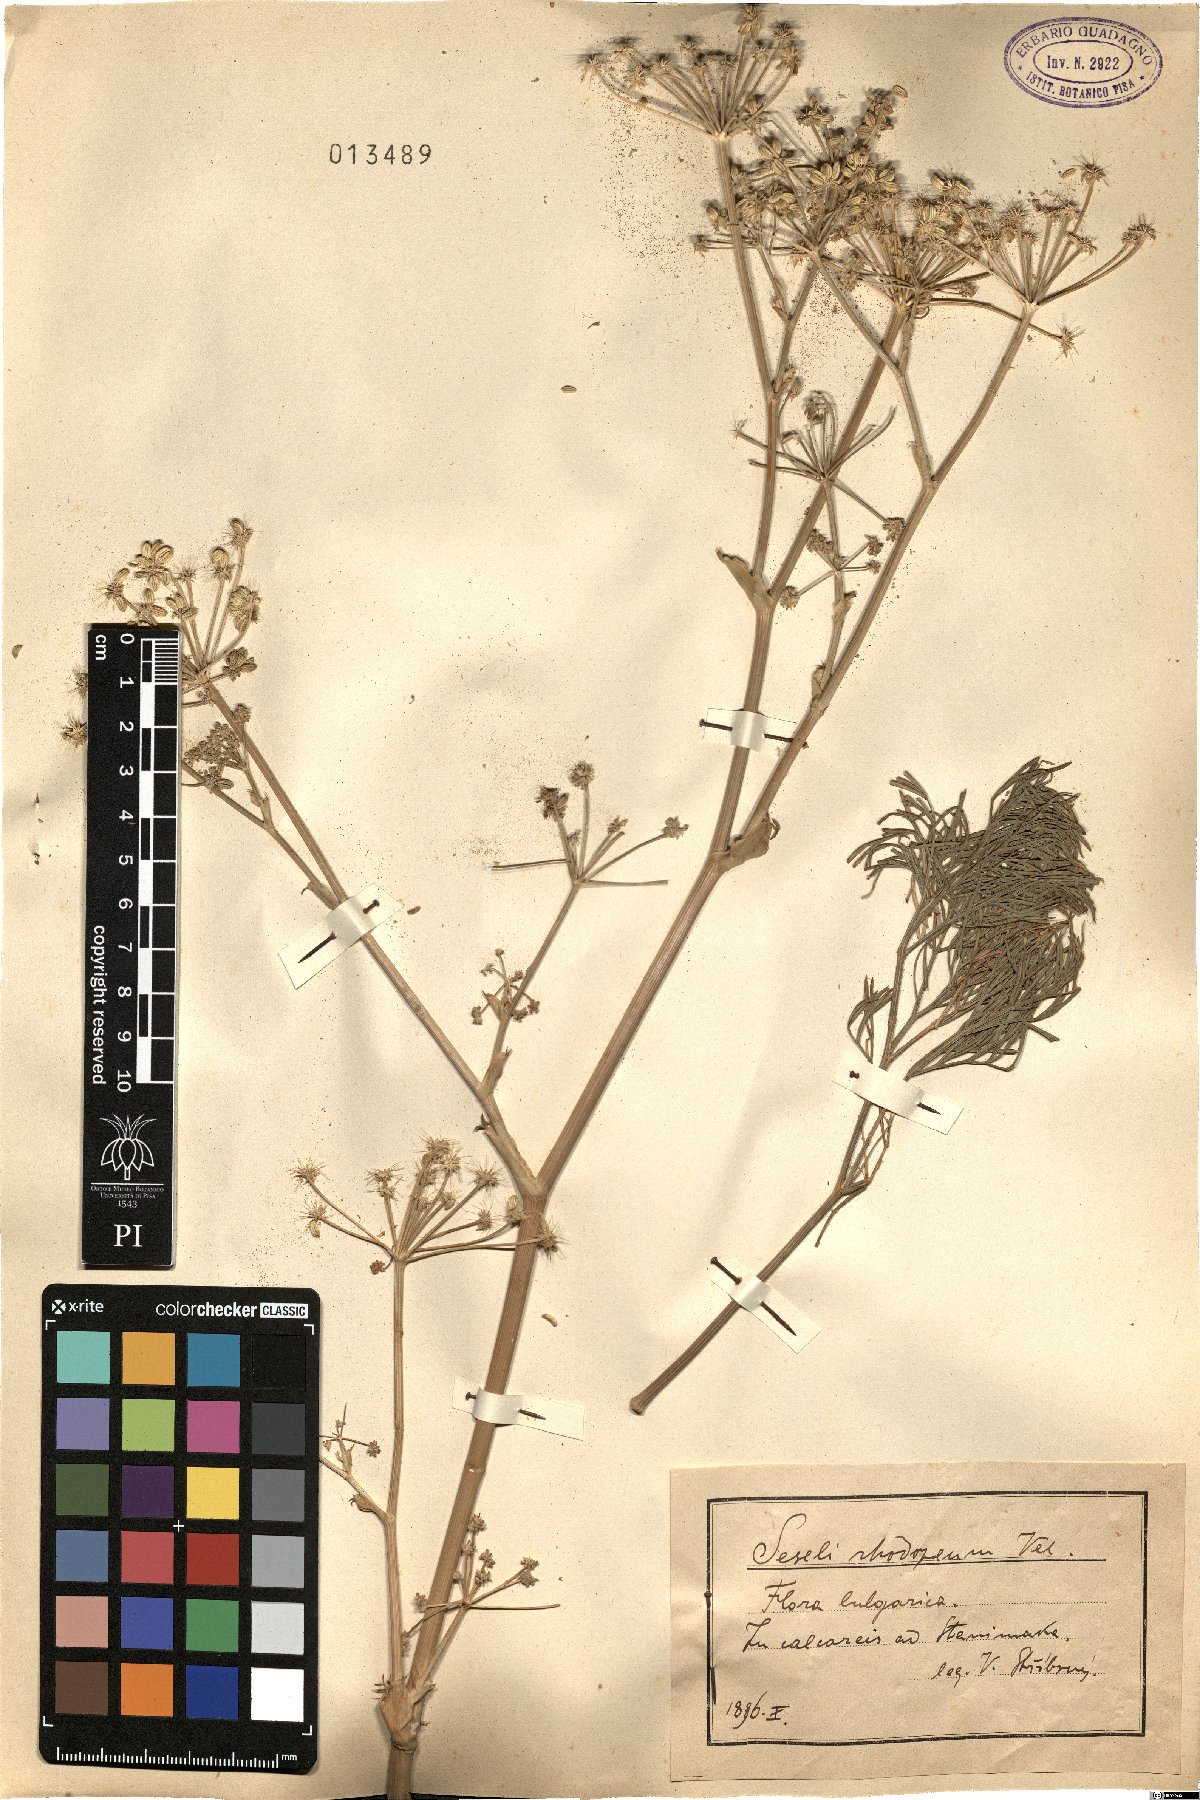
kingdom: Plantae
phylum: Tracheophyta
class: Magnoliopsida
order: Apiales
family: Apiaceae
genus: Seseli
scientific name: Seseli rhodopeum
